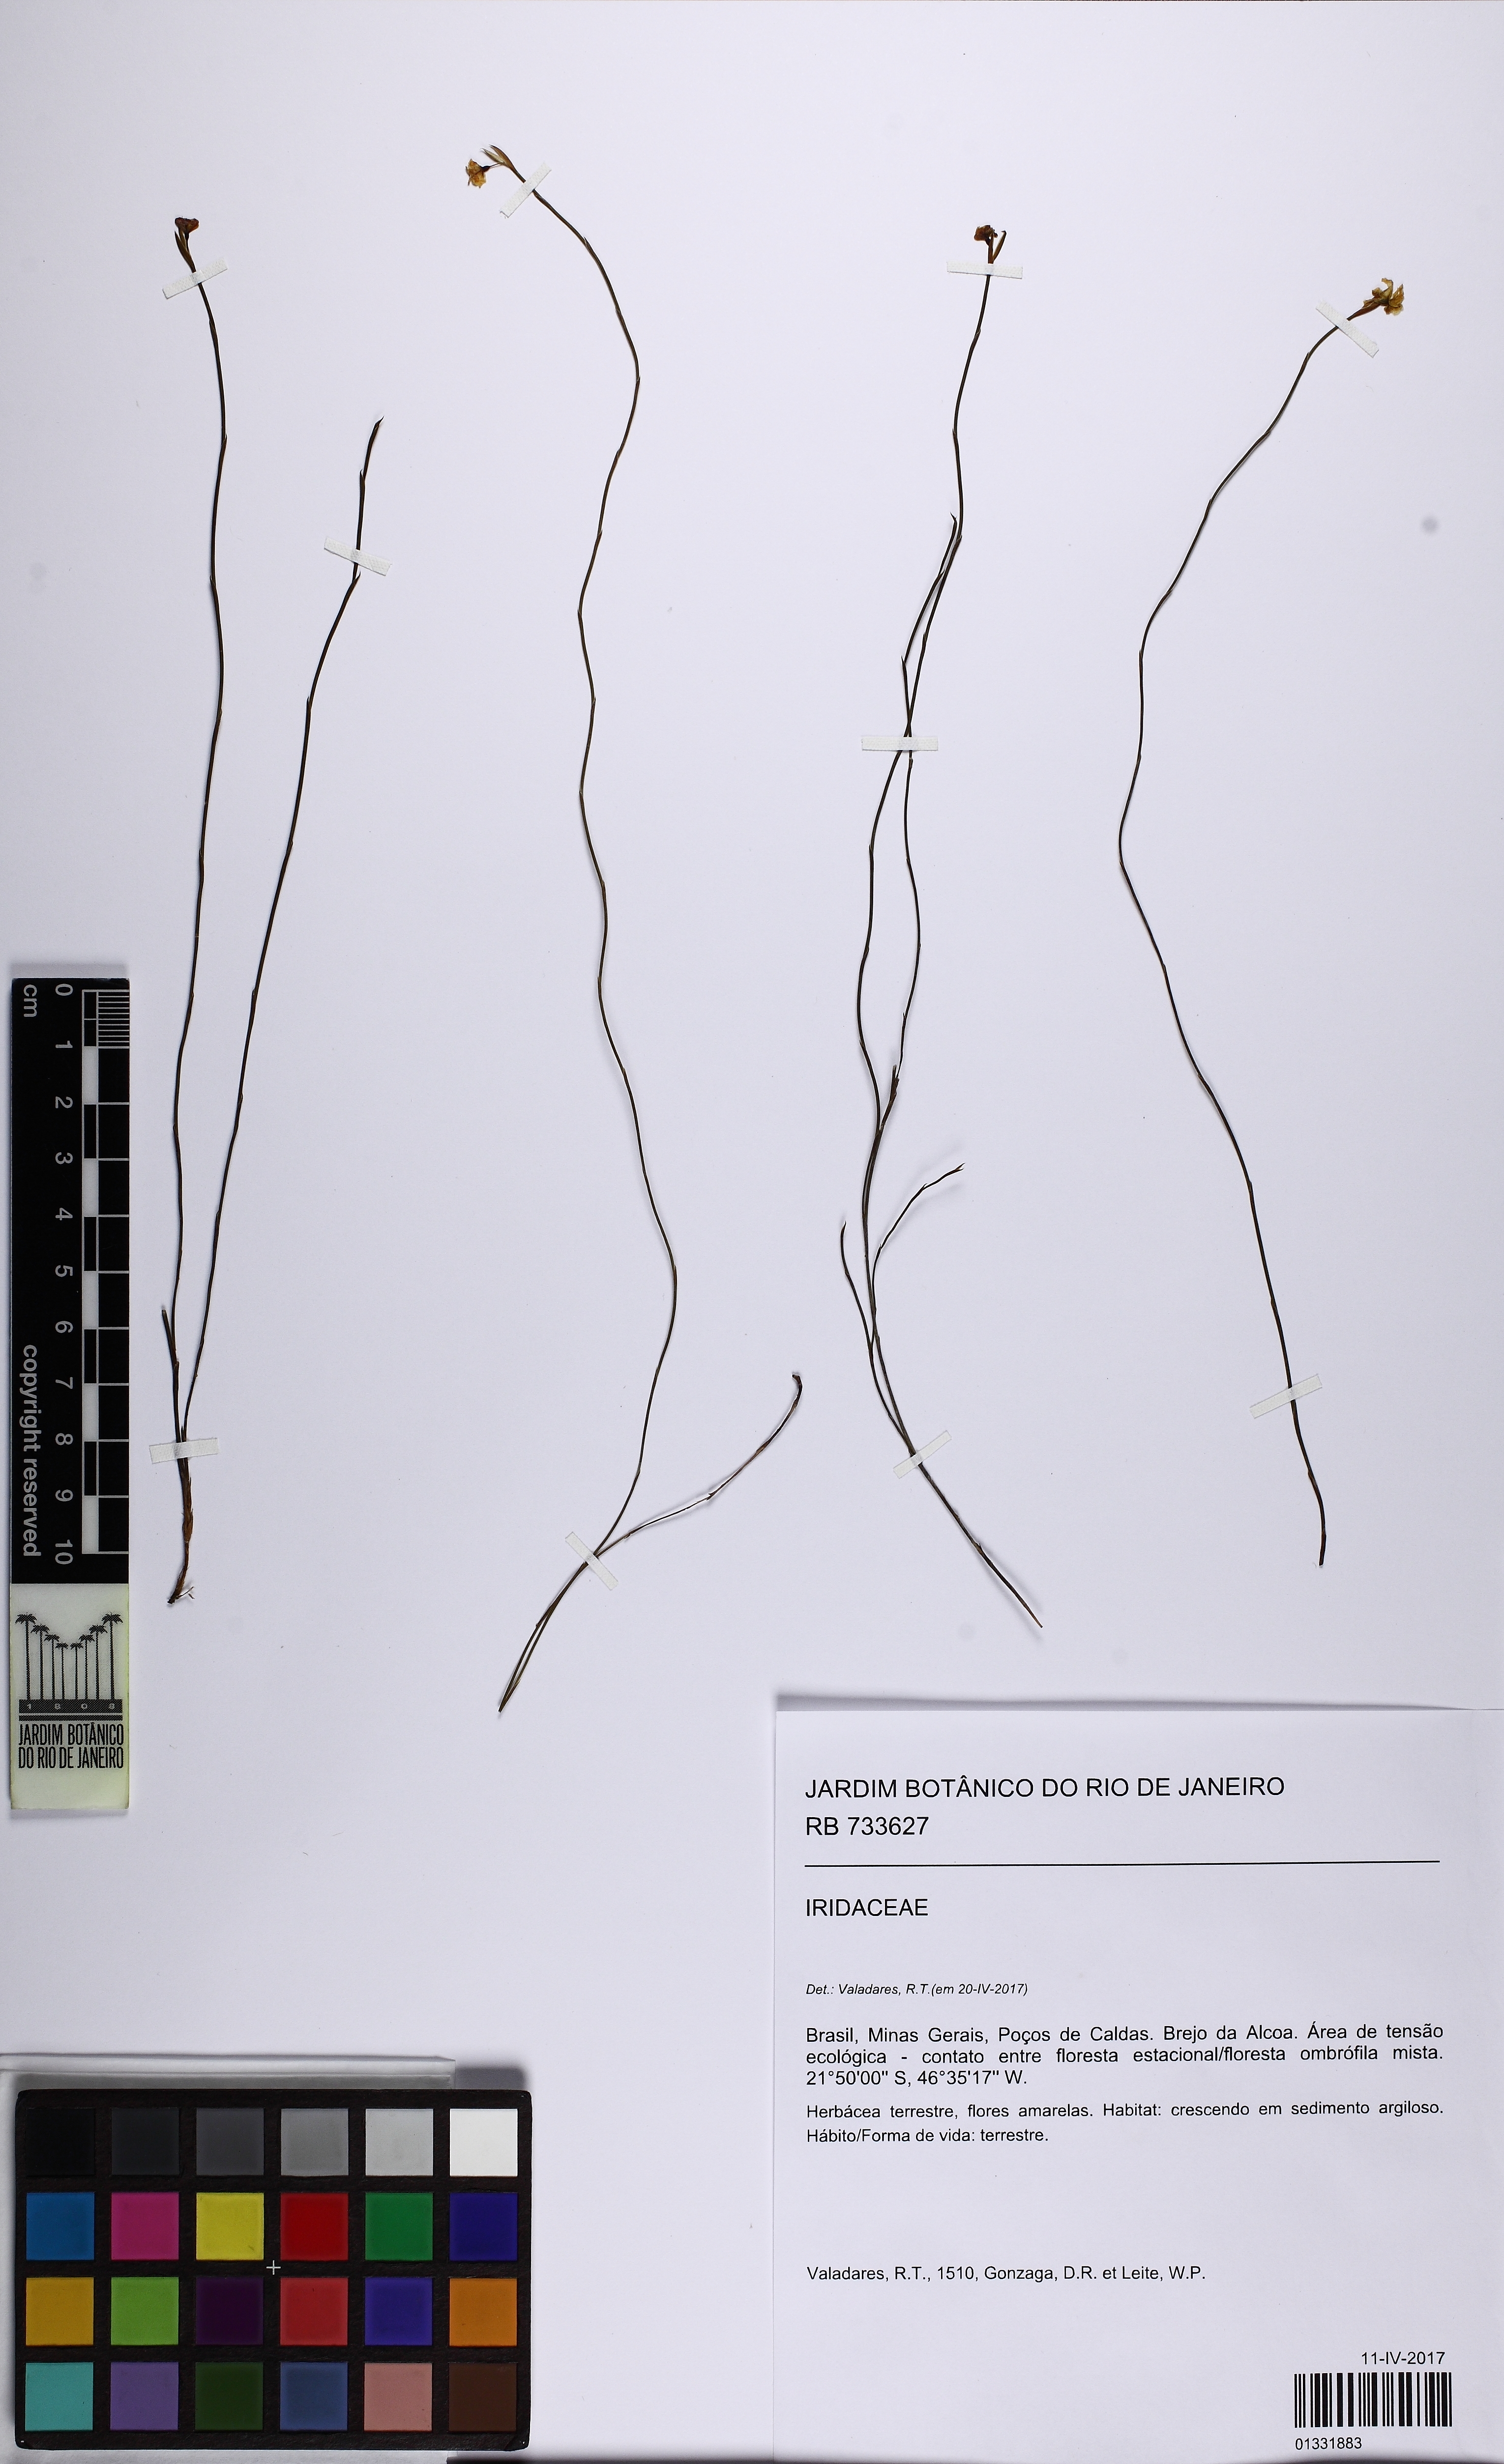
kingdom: Plantae
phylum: Tracheophyta
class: Liliopsida
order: Asparagales
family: Iridaceae
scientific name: Iridaceae
